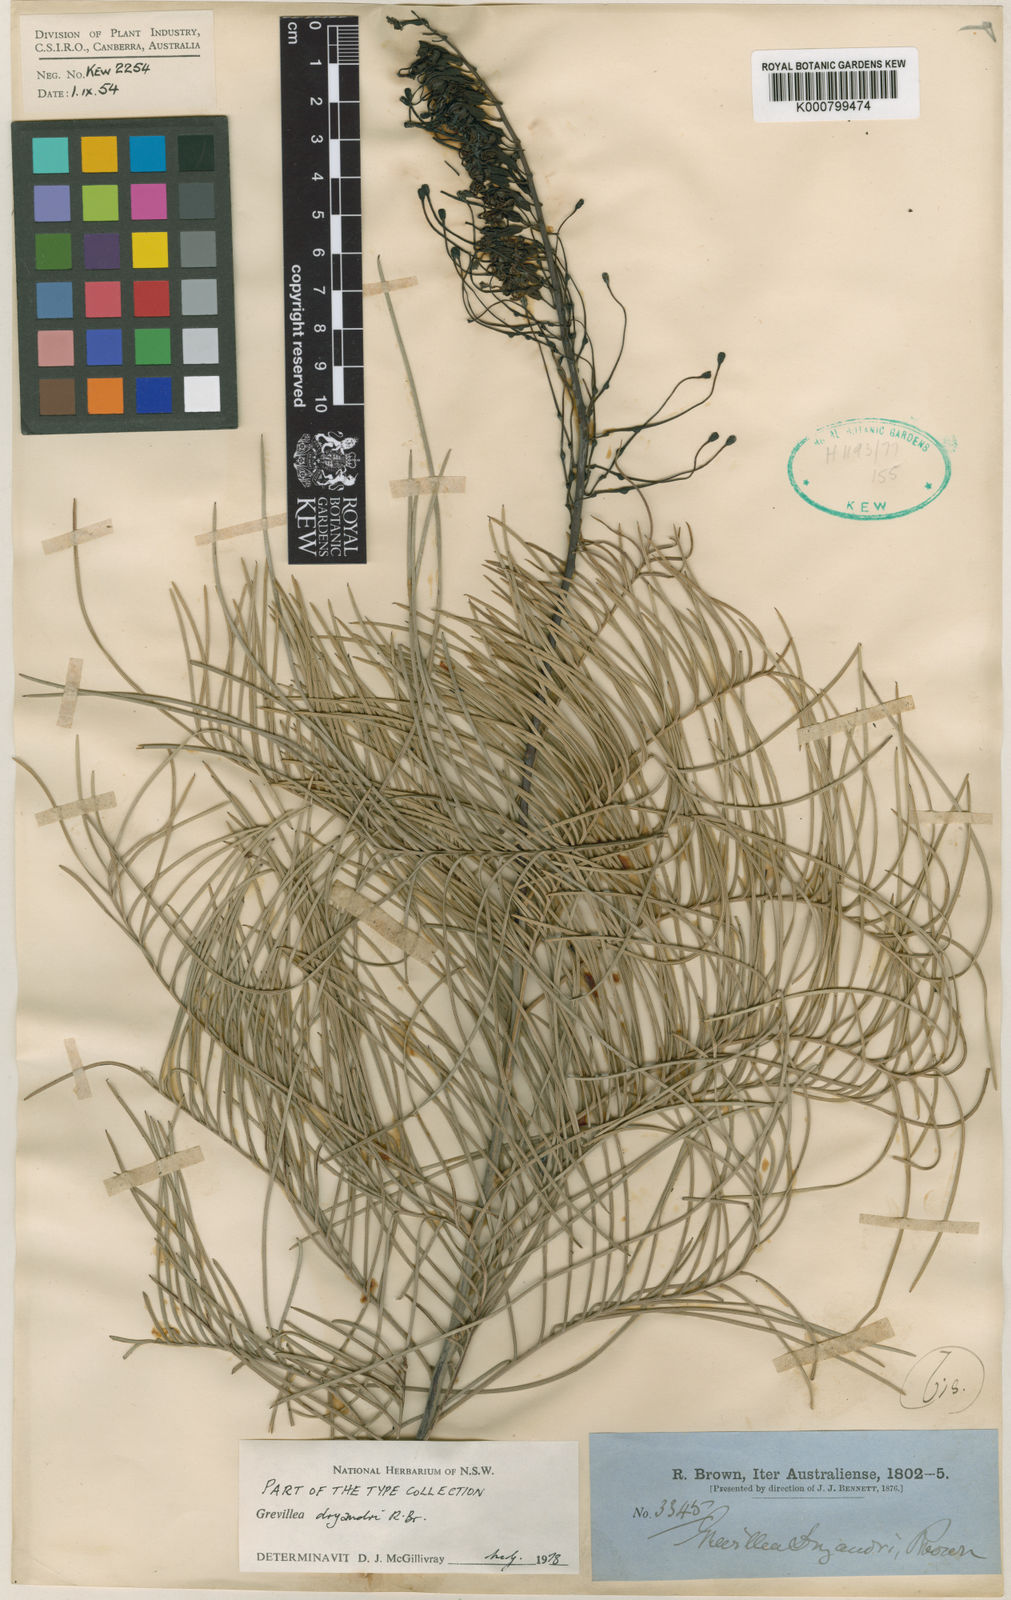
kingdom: Plantae
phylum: Tracheophyta
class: Magnoliopsida
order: Proteales
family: Proteaceae
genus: Grevillea
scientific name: Grevillea dryandri
